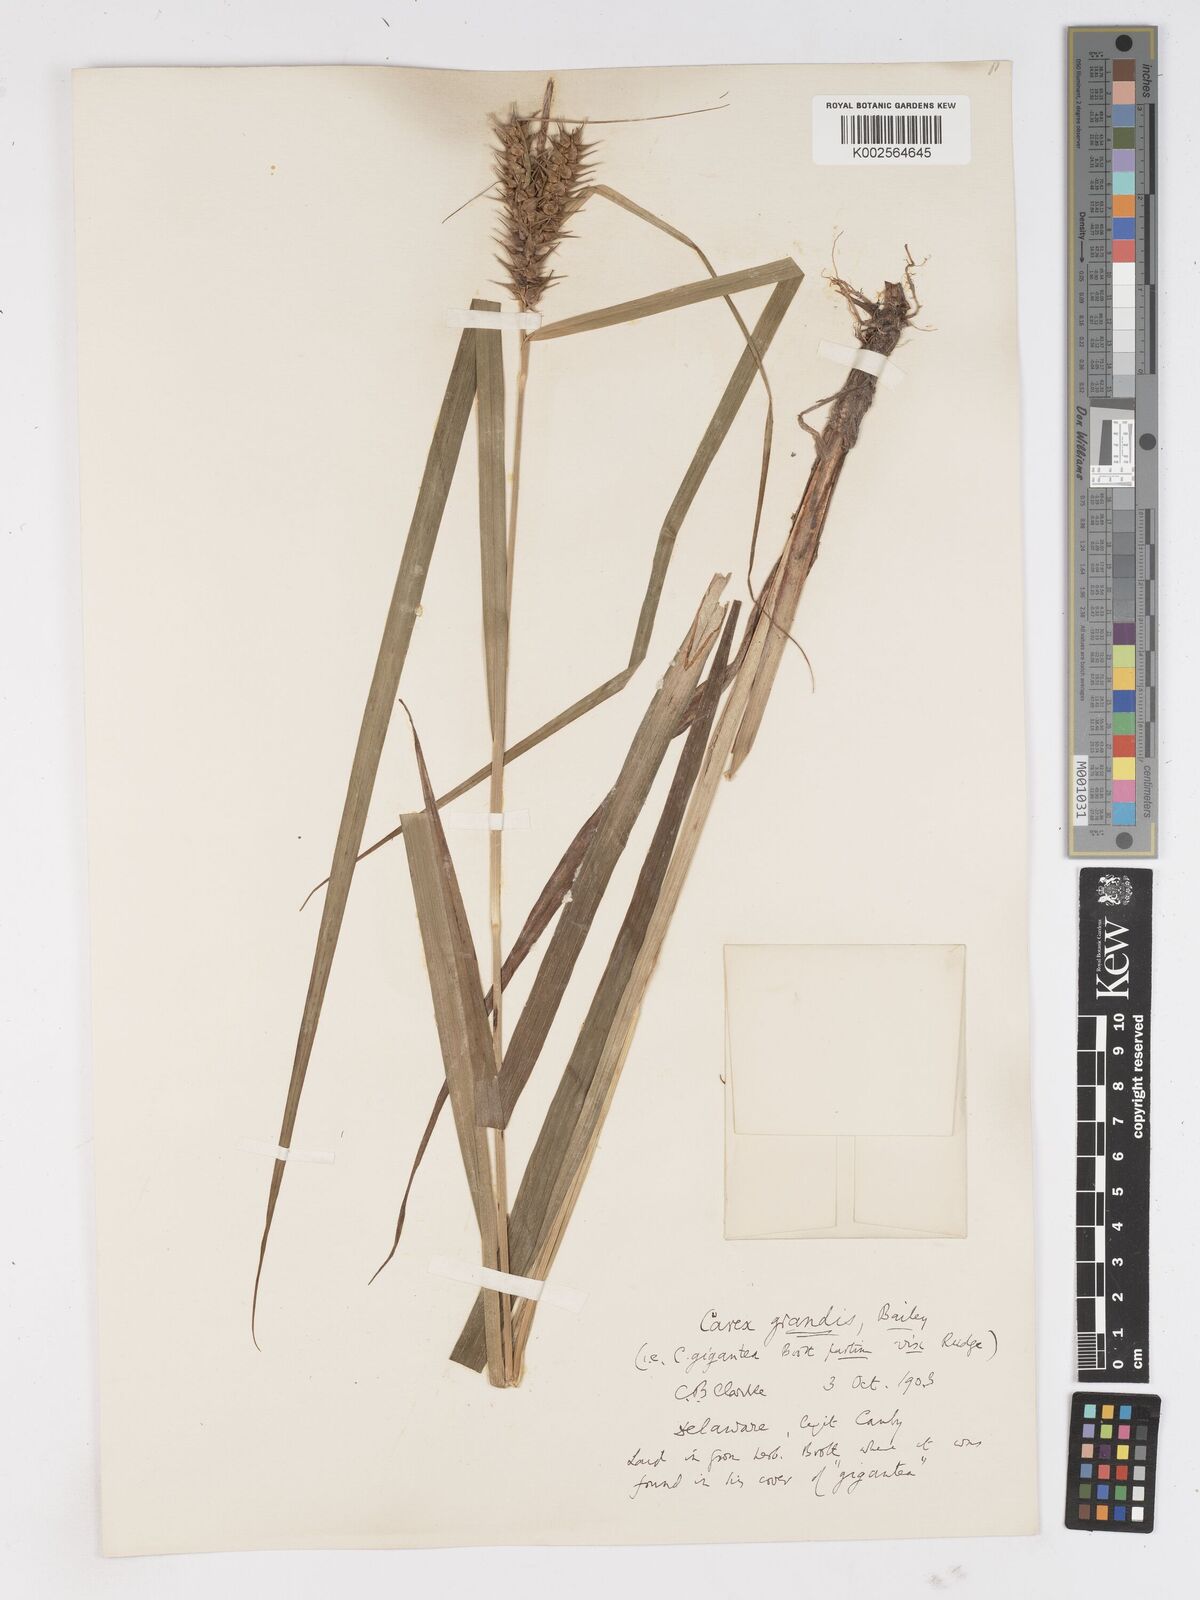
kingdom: Plantae
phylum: Tracheophyta
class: Liliopsida
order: Poales
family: Cyperaceae
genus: Carex
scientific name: Carex gigantea
